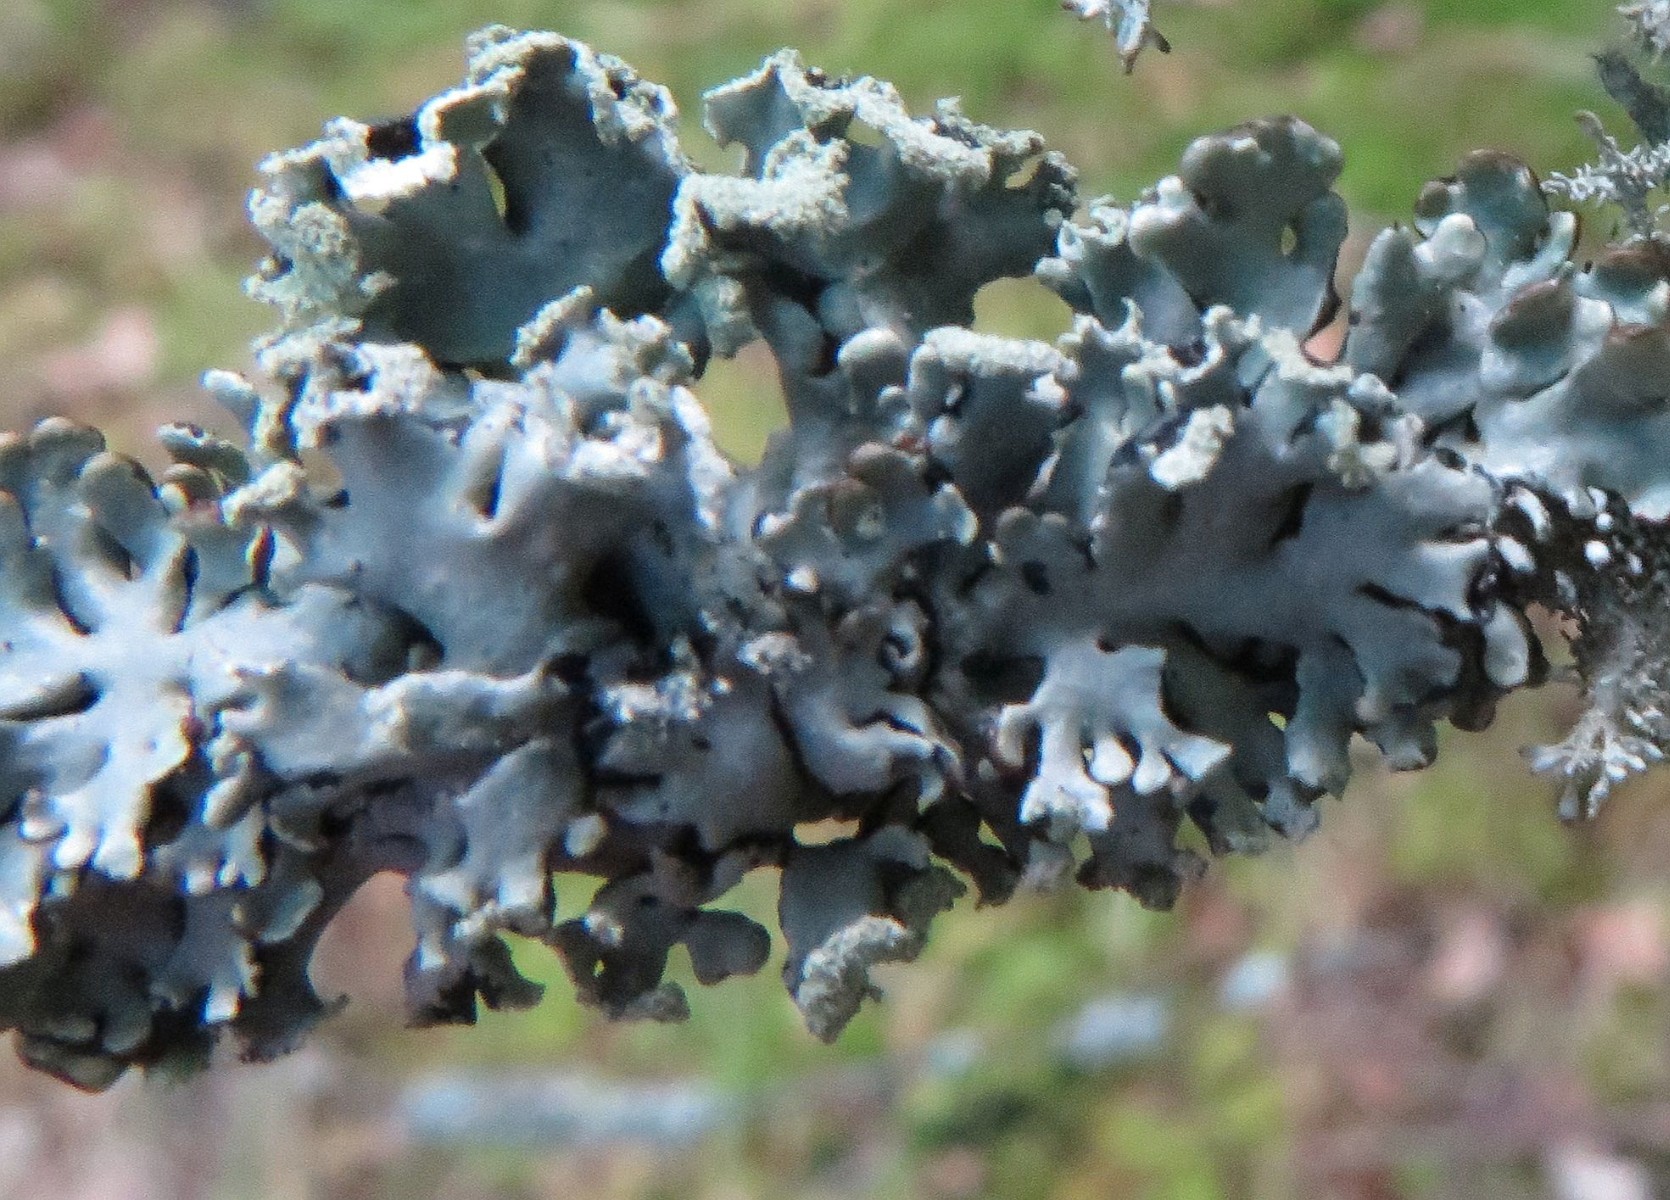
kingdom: Fungi
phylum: Ascomycota
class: Lecanoromycetes
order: Lecanorales
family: Parmeliaceae
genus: Hypogymnia
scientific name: Hypogymnia physodes
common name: almindelig kvistlav
